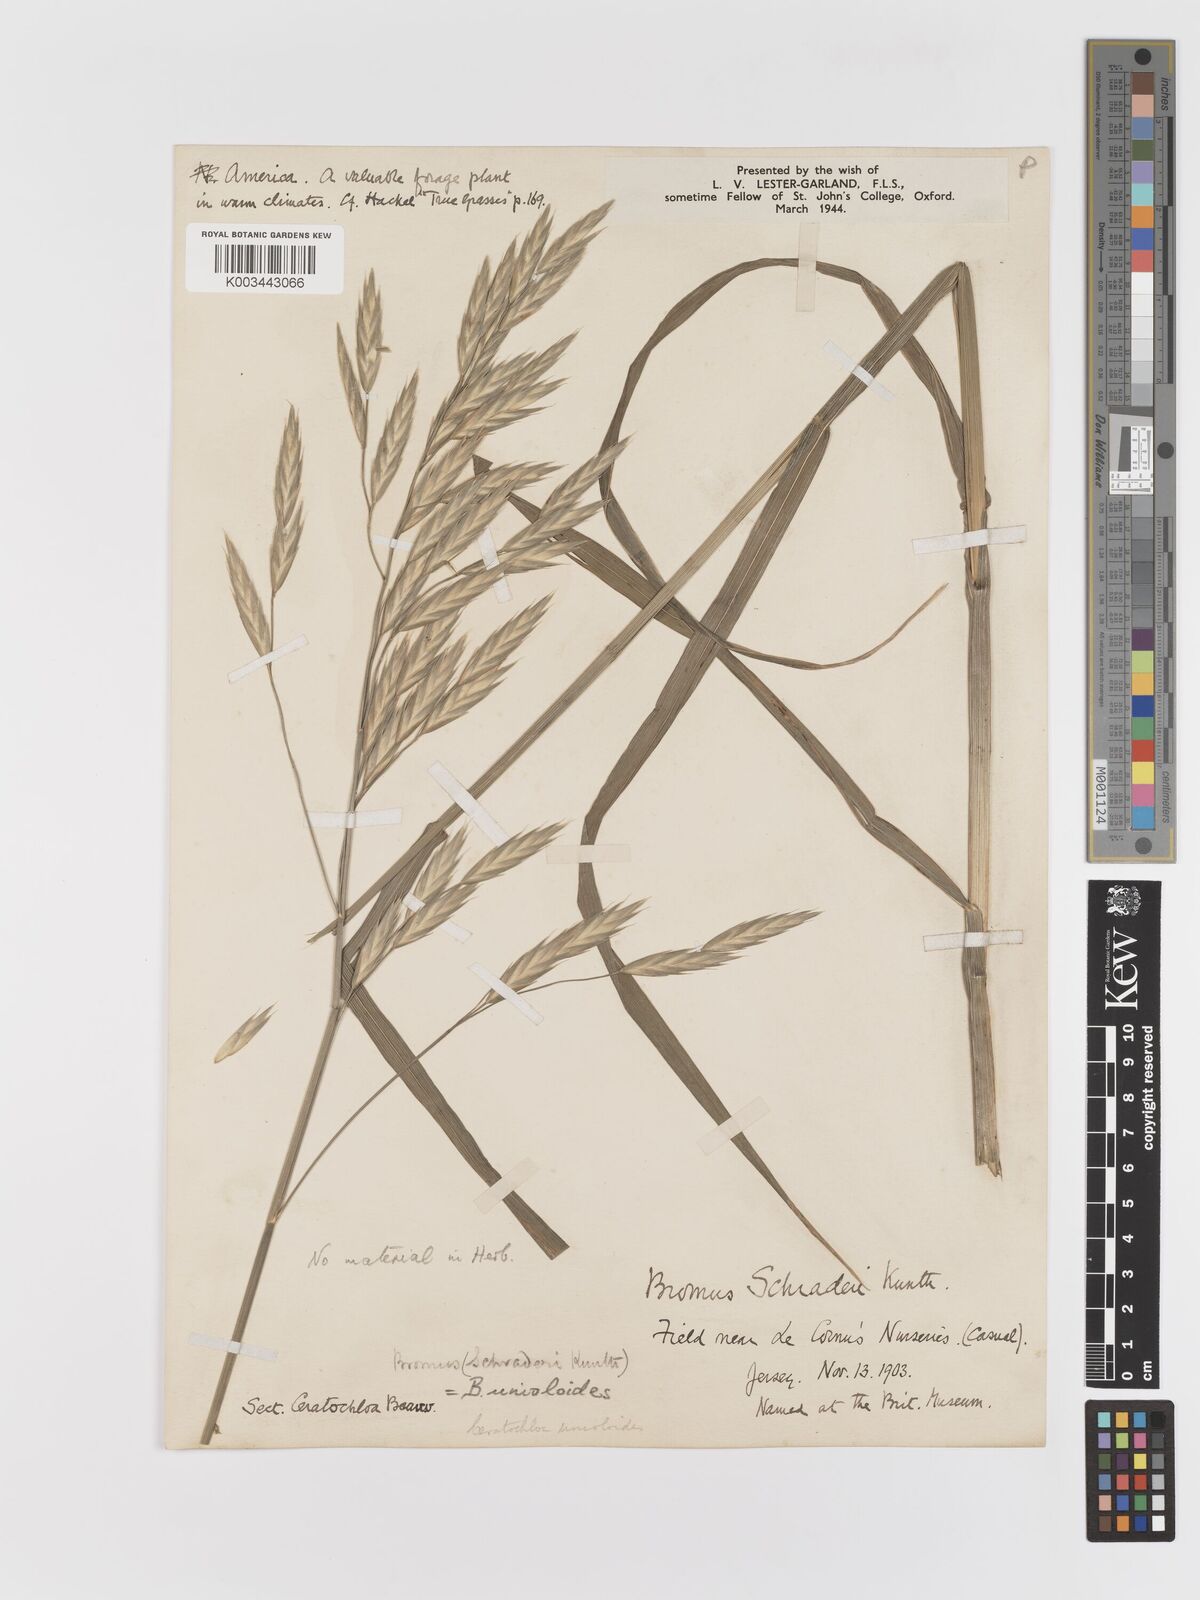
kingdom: Plantae
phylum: Tracheophyta
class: Liliopsida
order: Poales
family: Poaceae
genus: Bromus
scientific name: Bromus catharticus
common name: Rescuegrass
